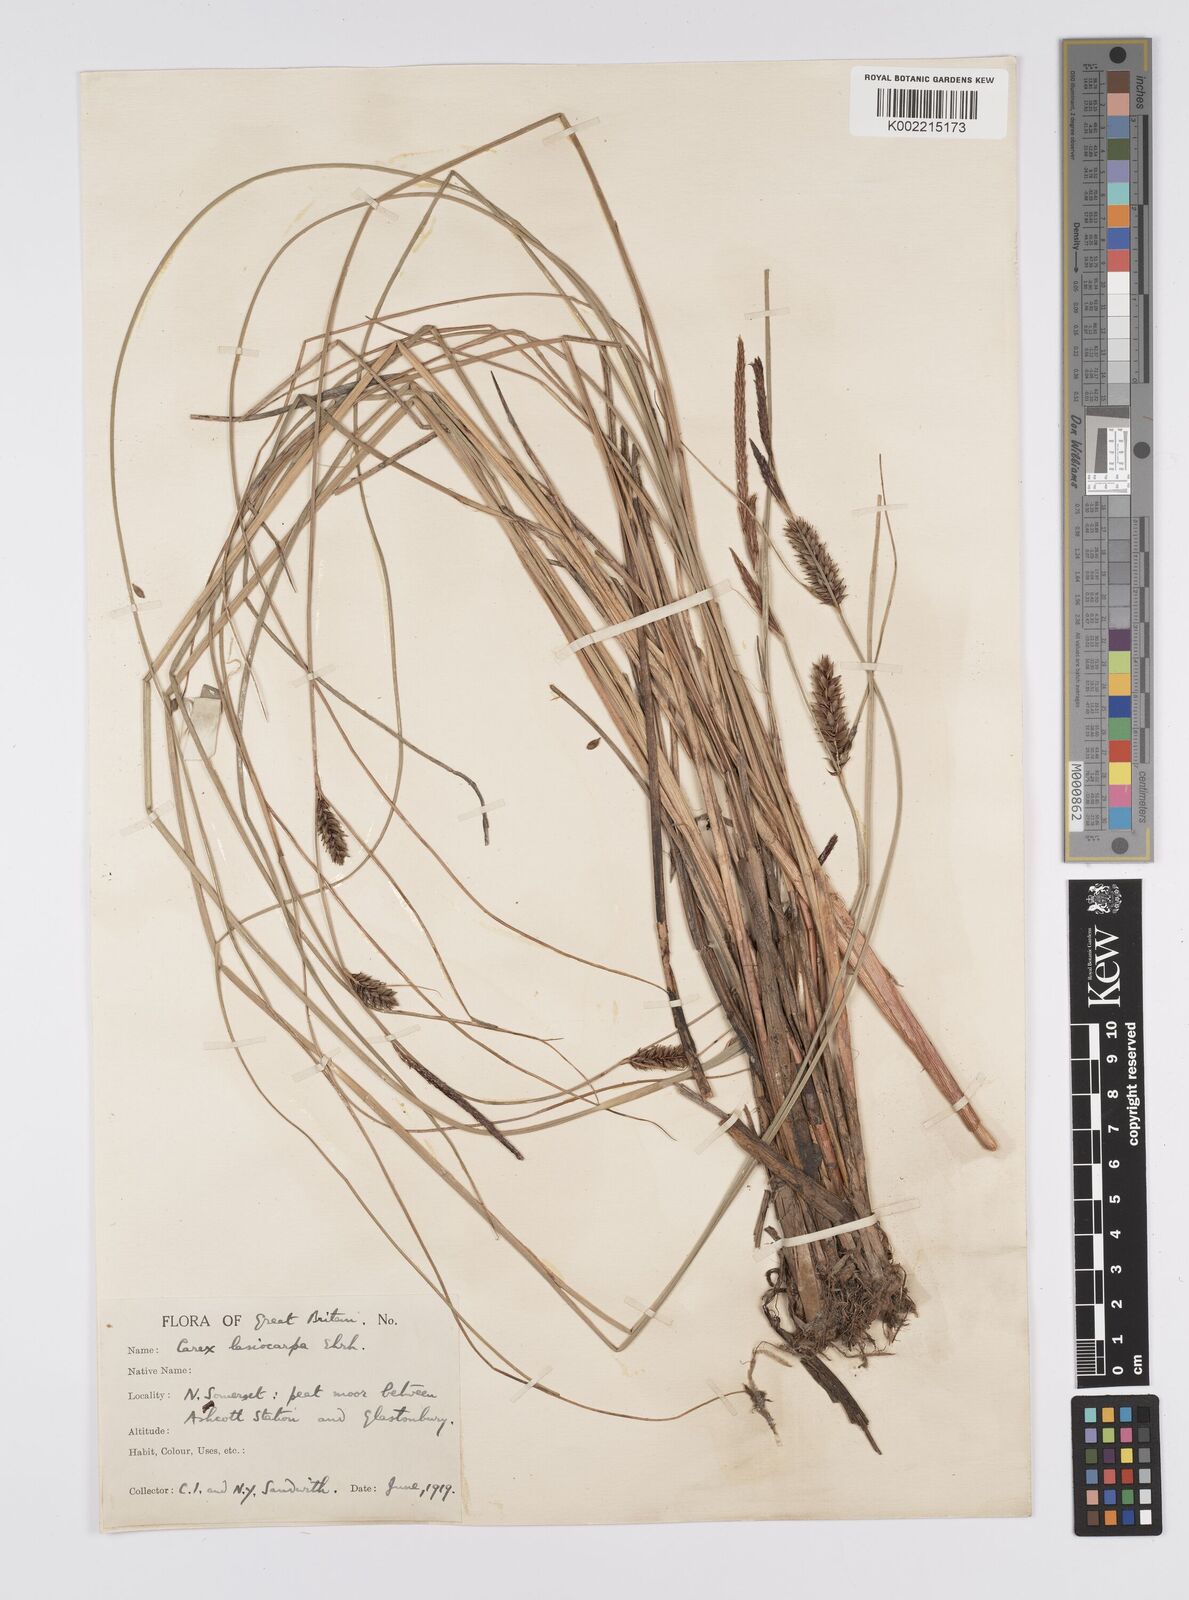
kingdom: Plantae
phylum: Tracheophyta
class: Liliopsida
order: Poales
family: Cyperaceae
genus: Carex
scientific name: Carex lasiocarpa
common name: Slender sedge
